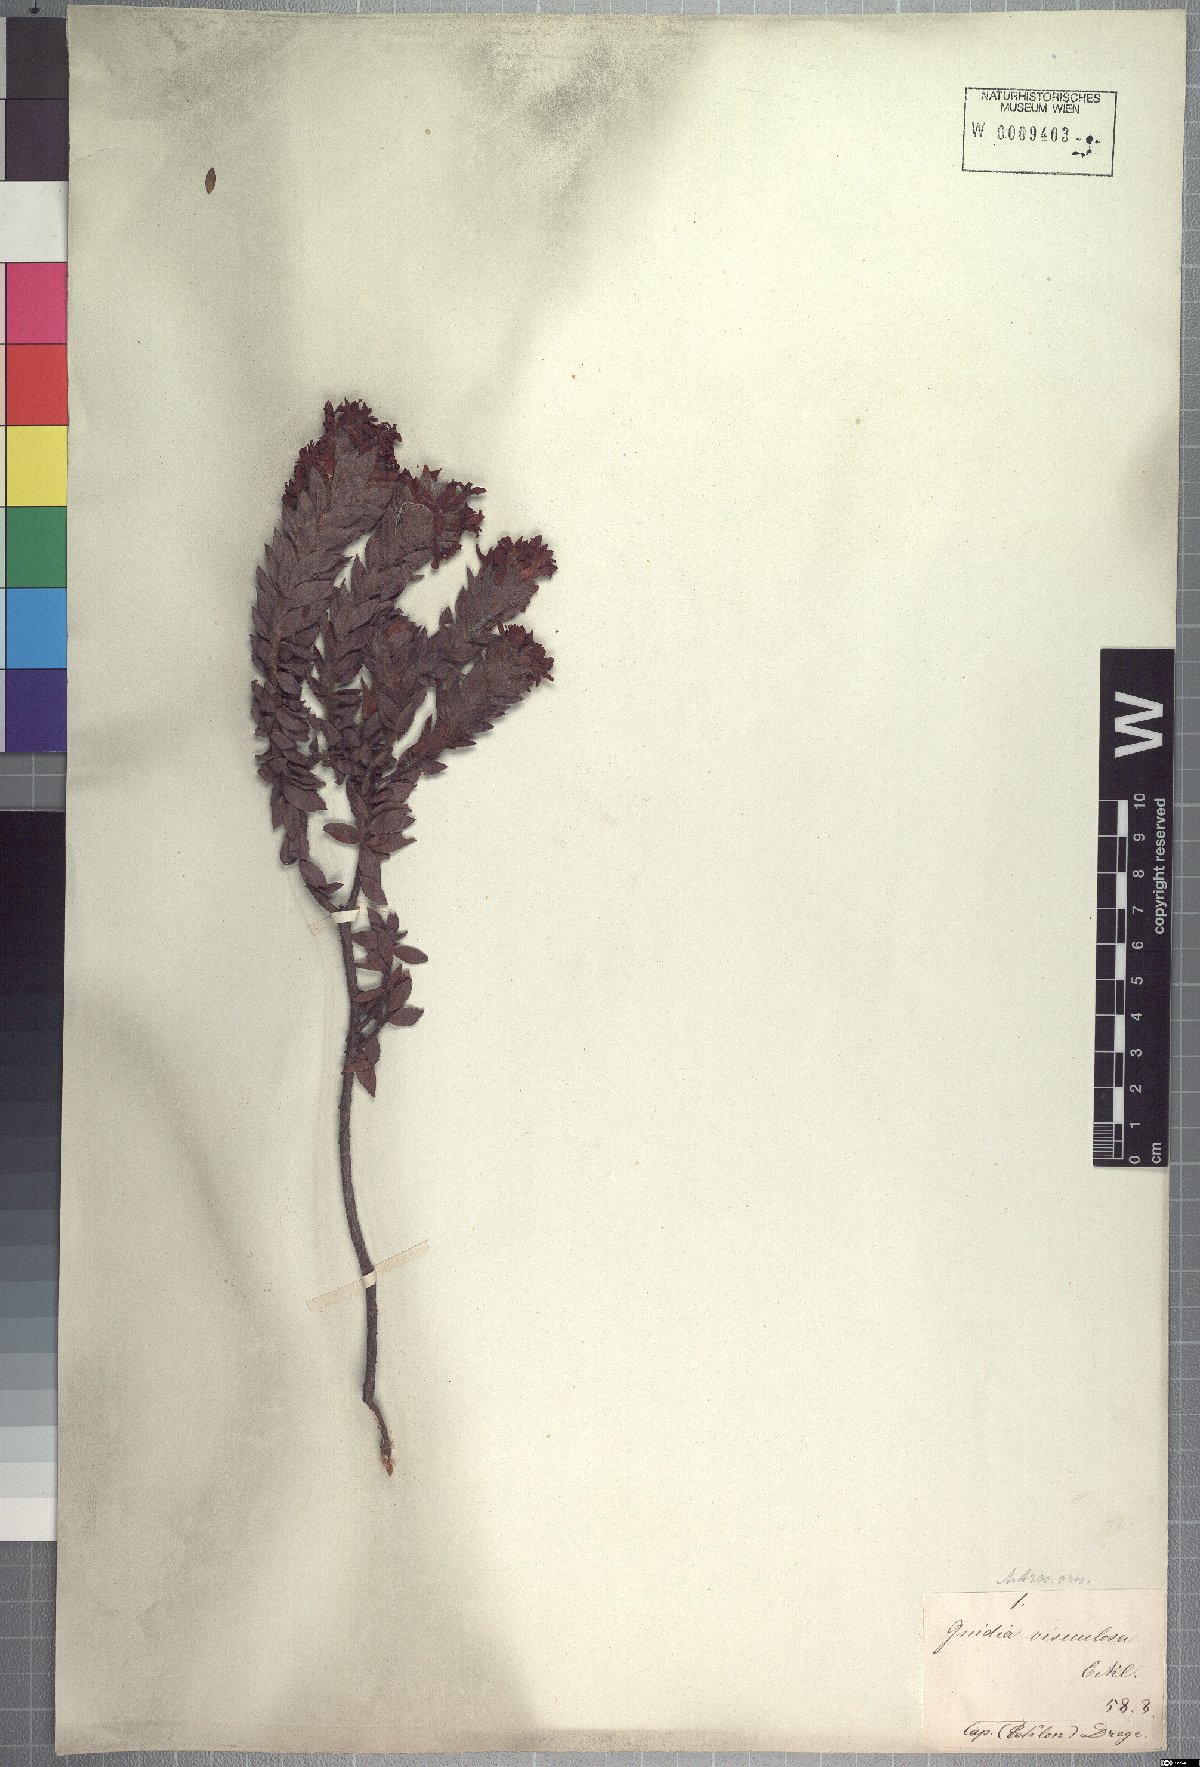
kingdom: Plantae
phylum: Tracheophyta
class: Magnoliopsida
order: Malvales
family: Thymelaeaceae
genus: Gnidia
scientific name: Gnidia ornata
